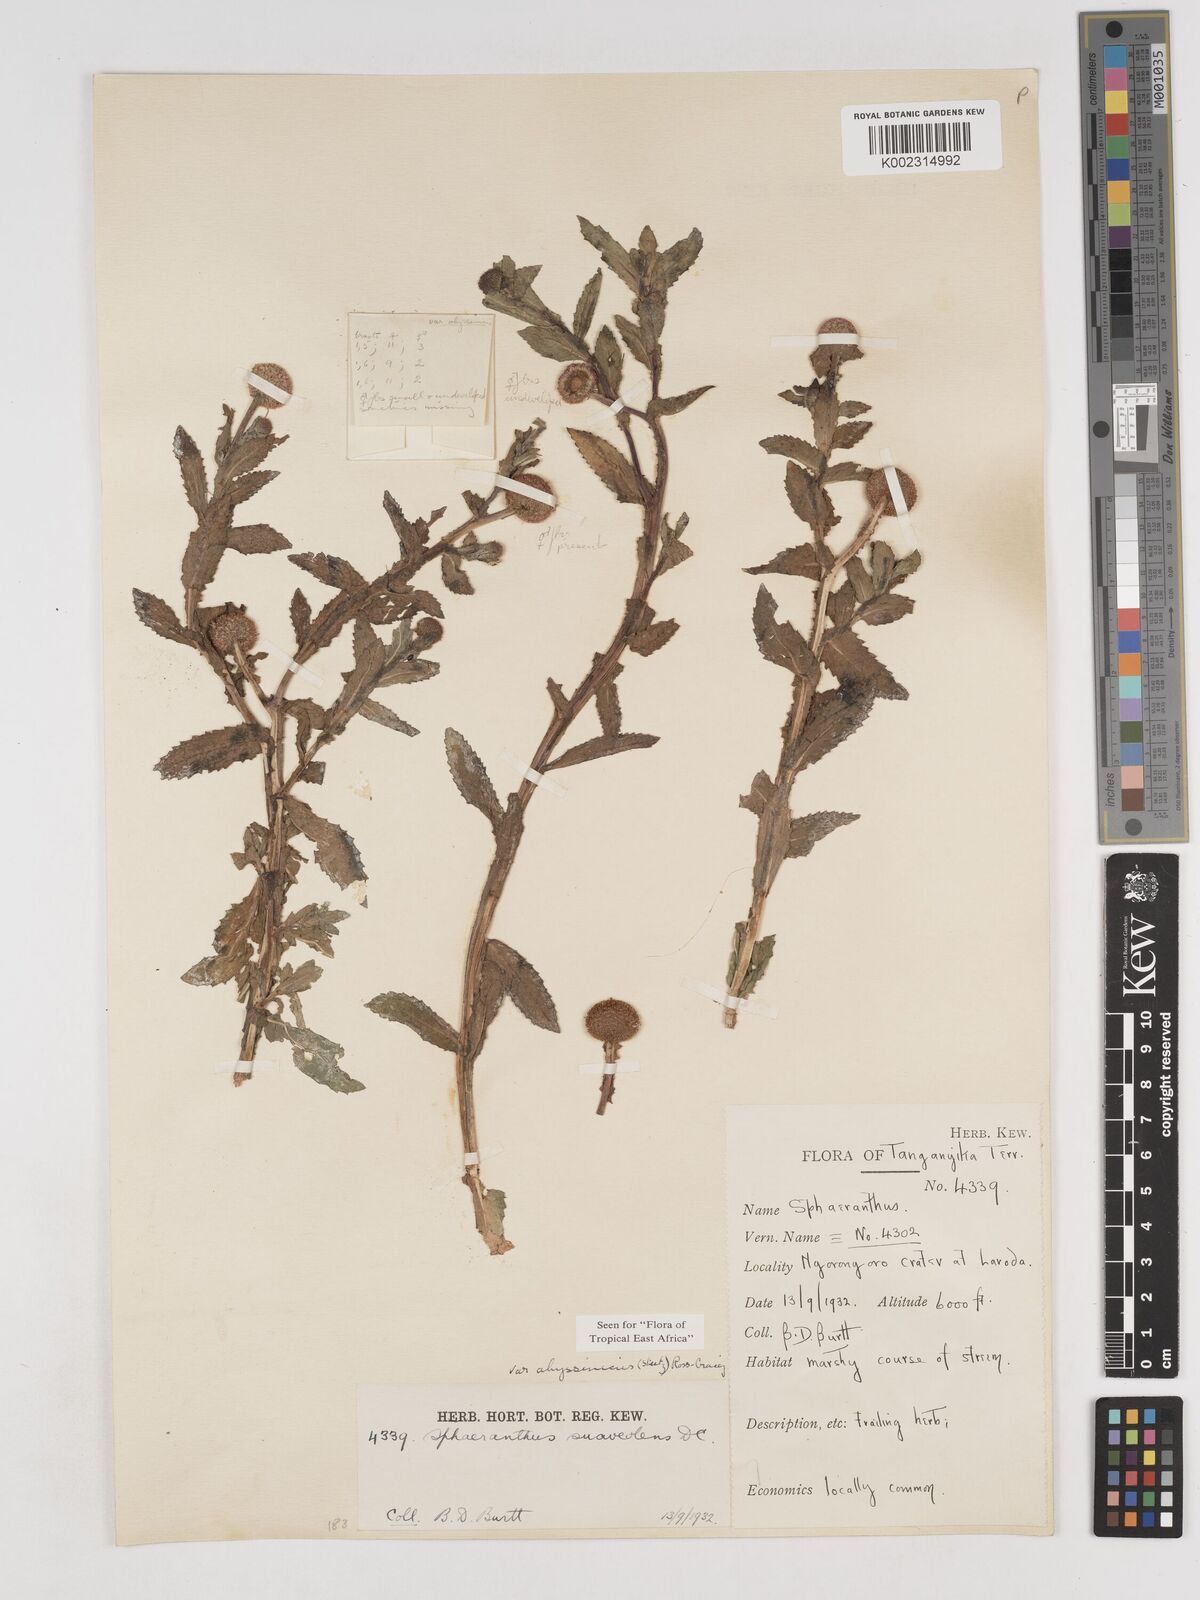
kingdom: Plantae
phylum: Tracheophyta
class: Magnoliopsida
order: Asterales
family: Asteraceae
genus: Sphaeranthus
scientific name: Sphaeranthus suaveolens
